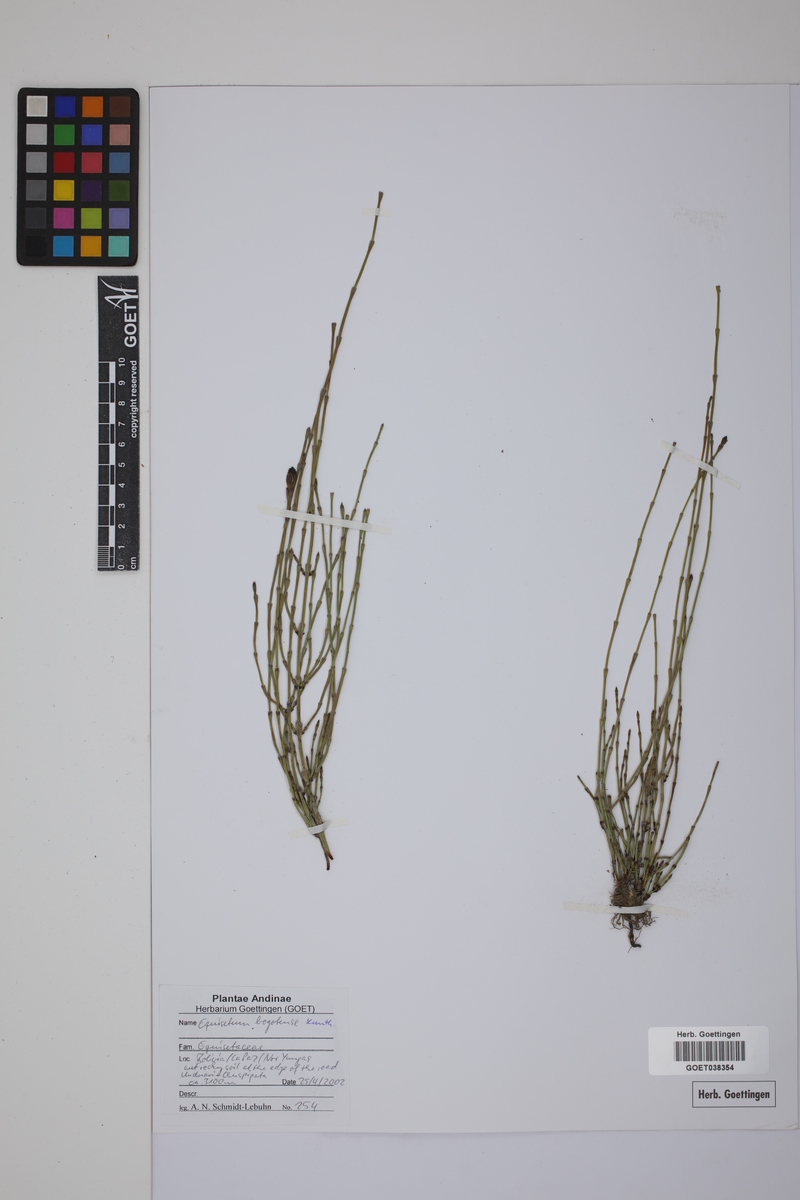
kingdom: Plantae
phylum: Tracheophyta
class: Polypodiopsida
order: Equisetales
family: Equisetaceae
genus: Equisetum
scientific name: Equisetum bogotense
